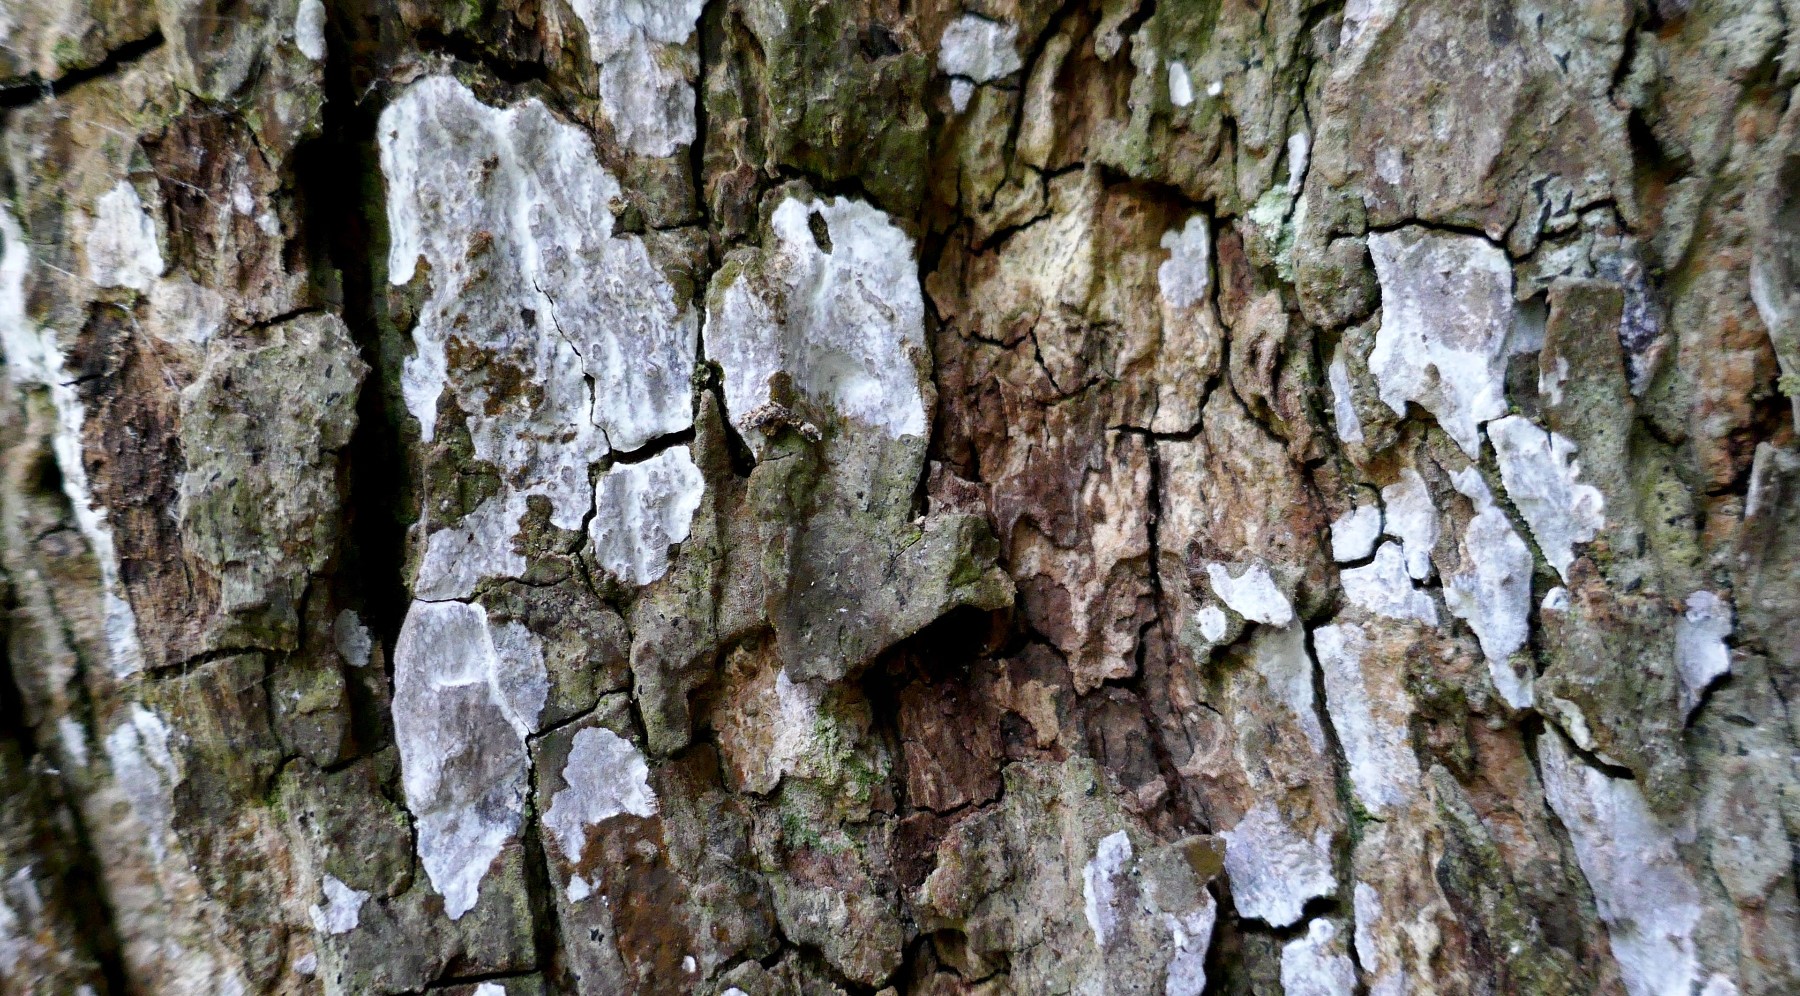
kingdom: Fungi
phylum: Basidiomycota
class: Agaricomycetes
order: Agaricales
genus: Dendrothele
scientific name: Dendrothele acerina
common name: navr-kalkplet
